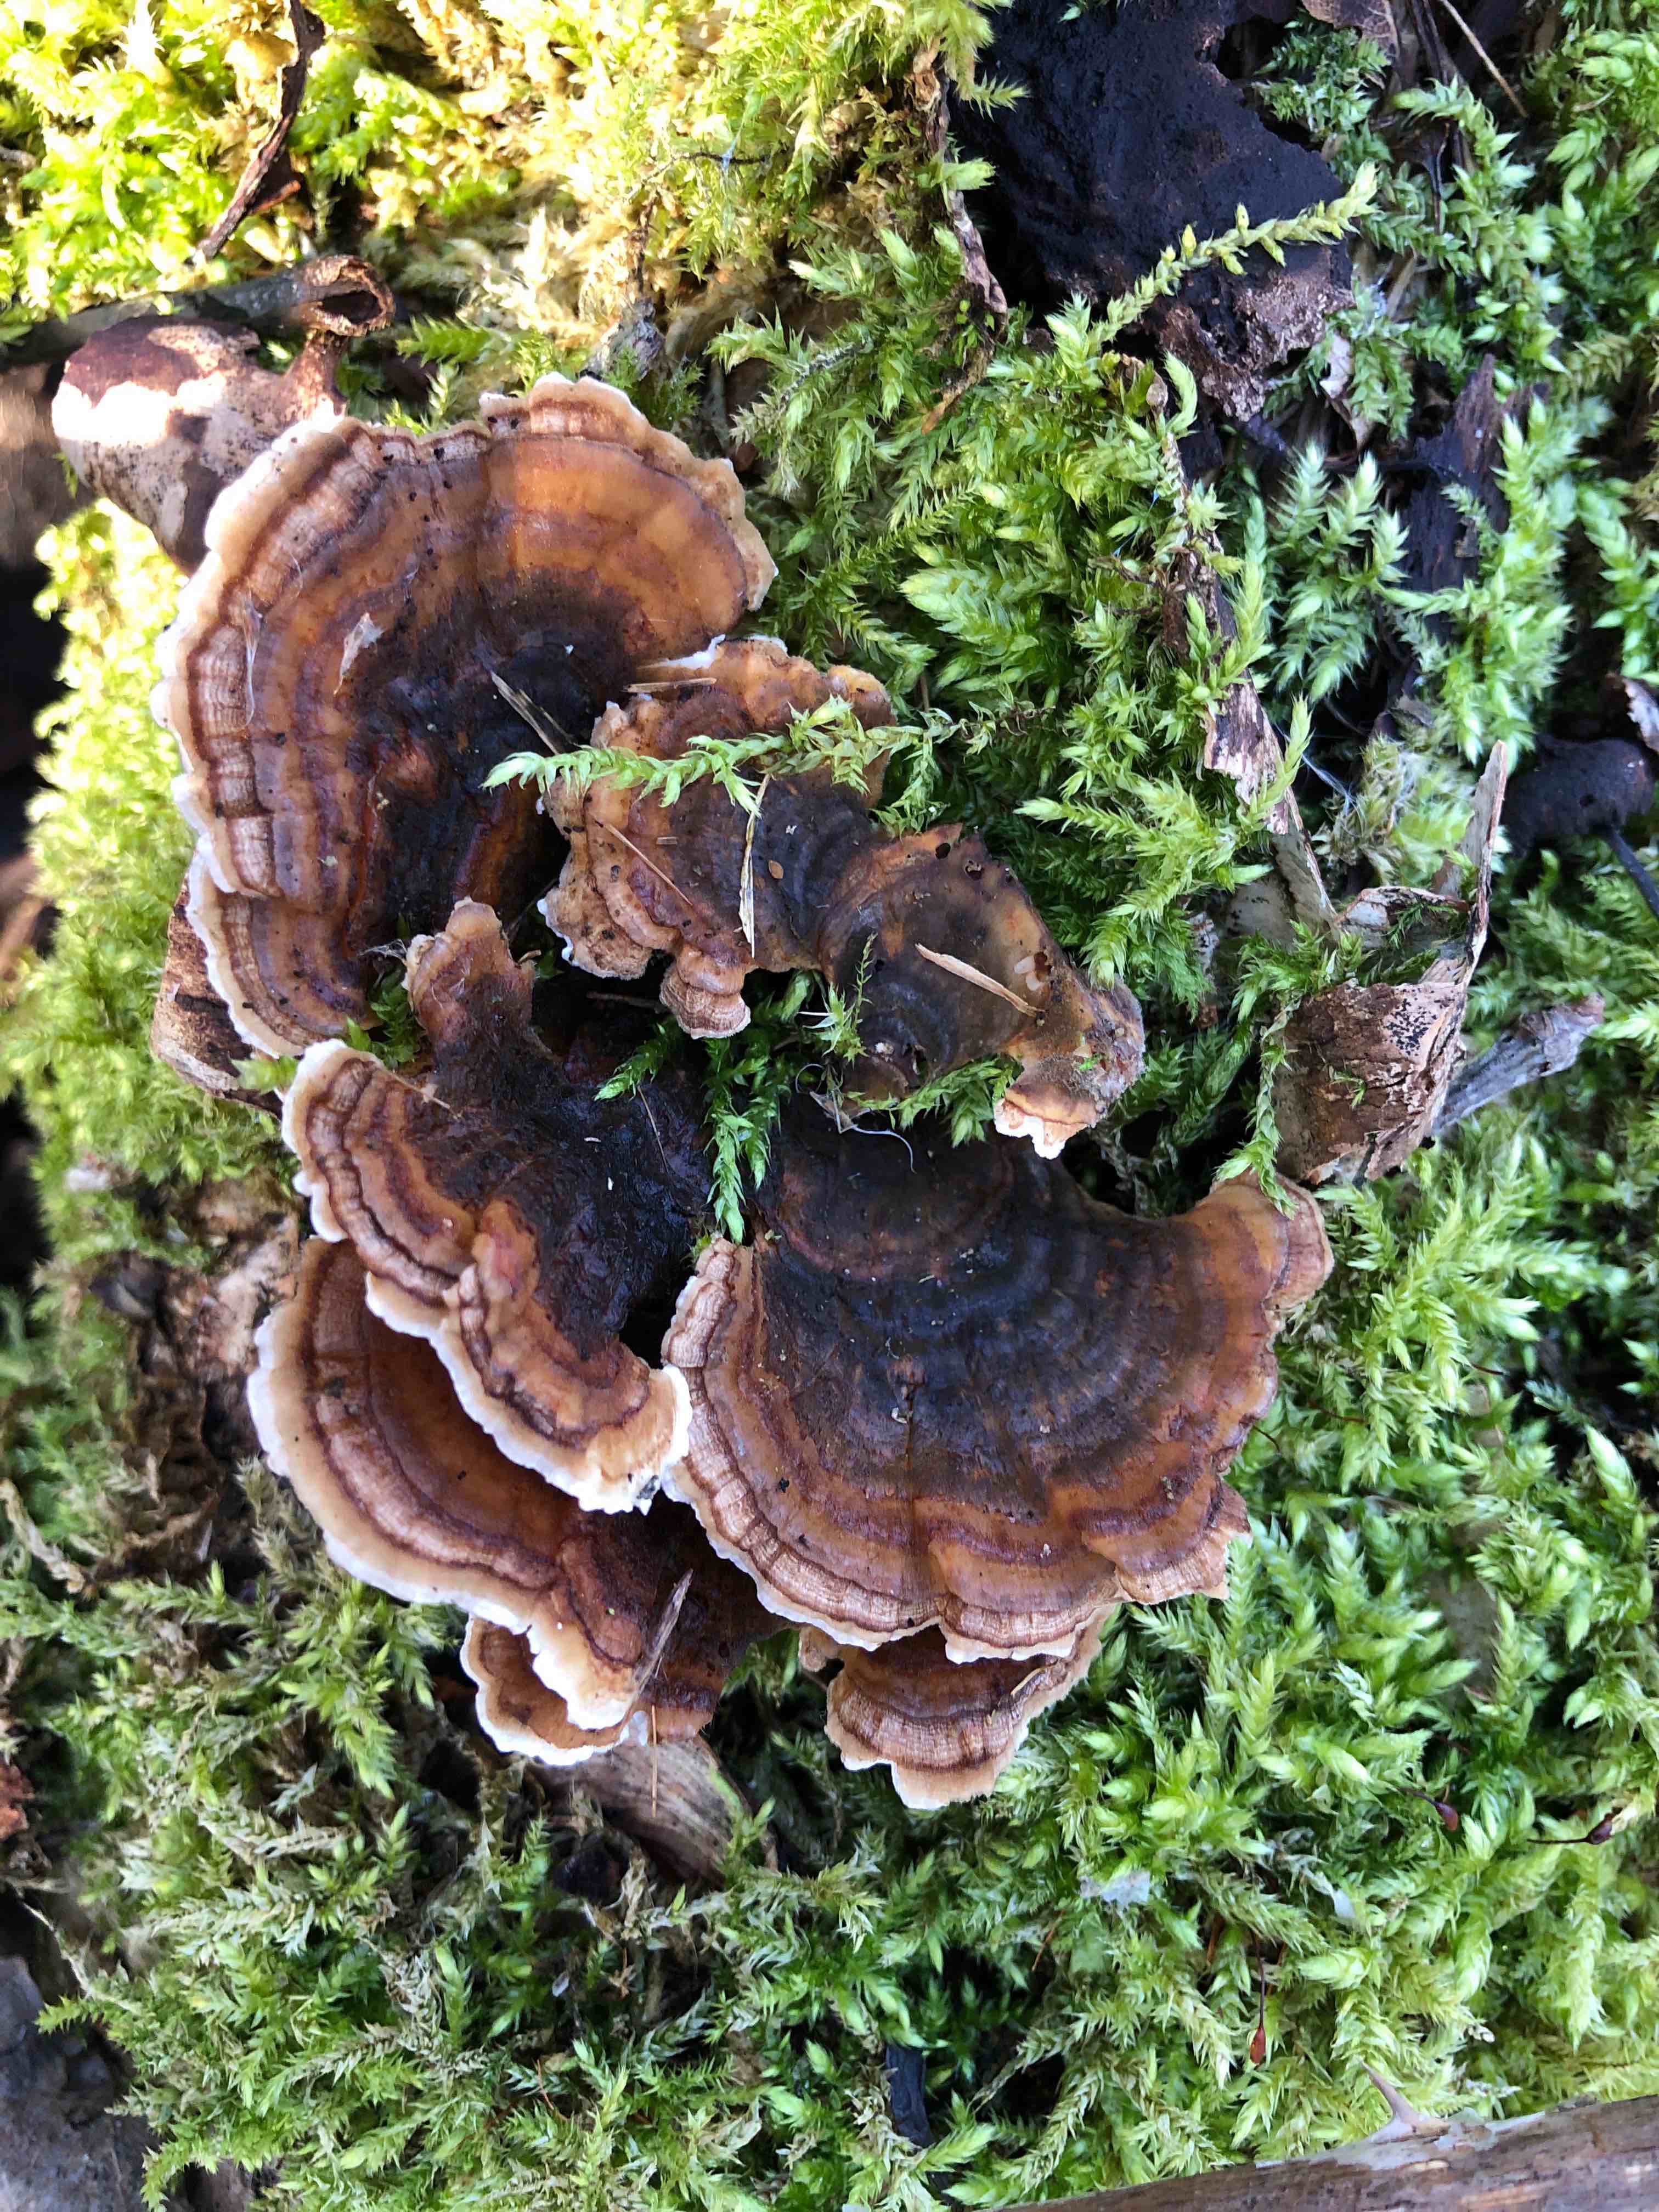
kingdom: Fungi
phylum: Basidiomycota
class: Agaricomycetes
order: Polyporales
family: Polyporaceae
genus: Trametes
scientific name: Trametes versicolor
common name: broget læderporesvamp
